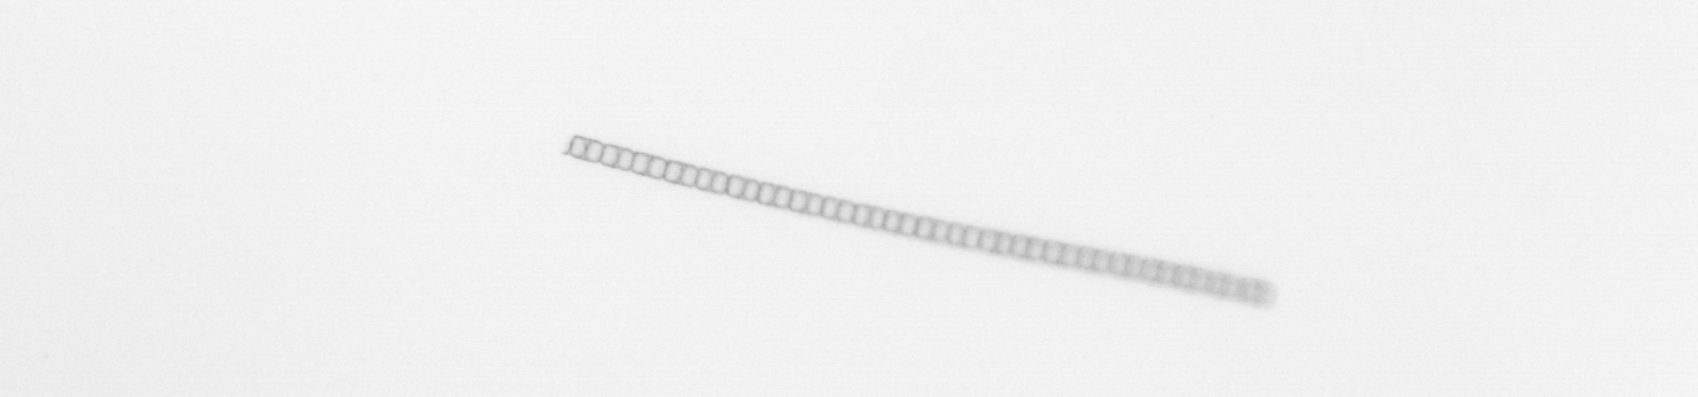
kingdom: Chromista
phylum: Ochrophyta
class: Bacillariophyceae
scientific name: Bacillariophyceae
